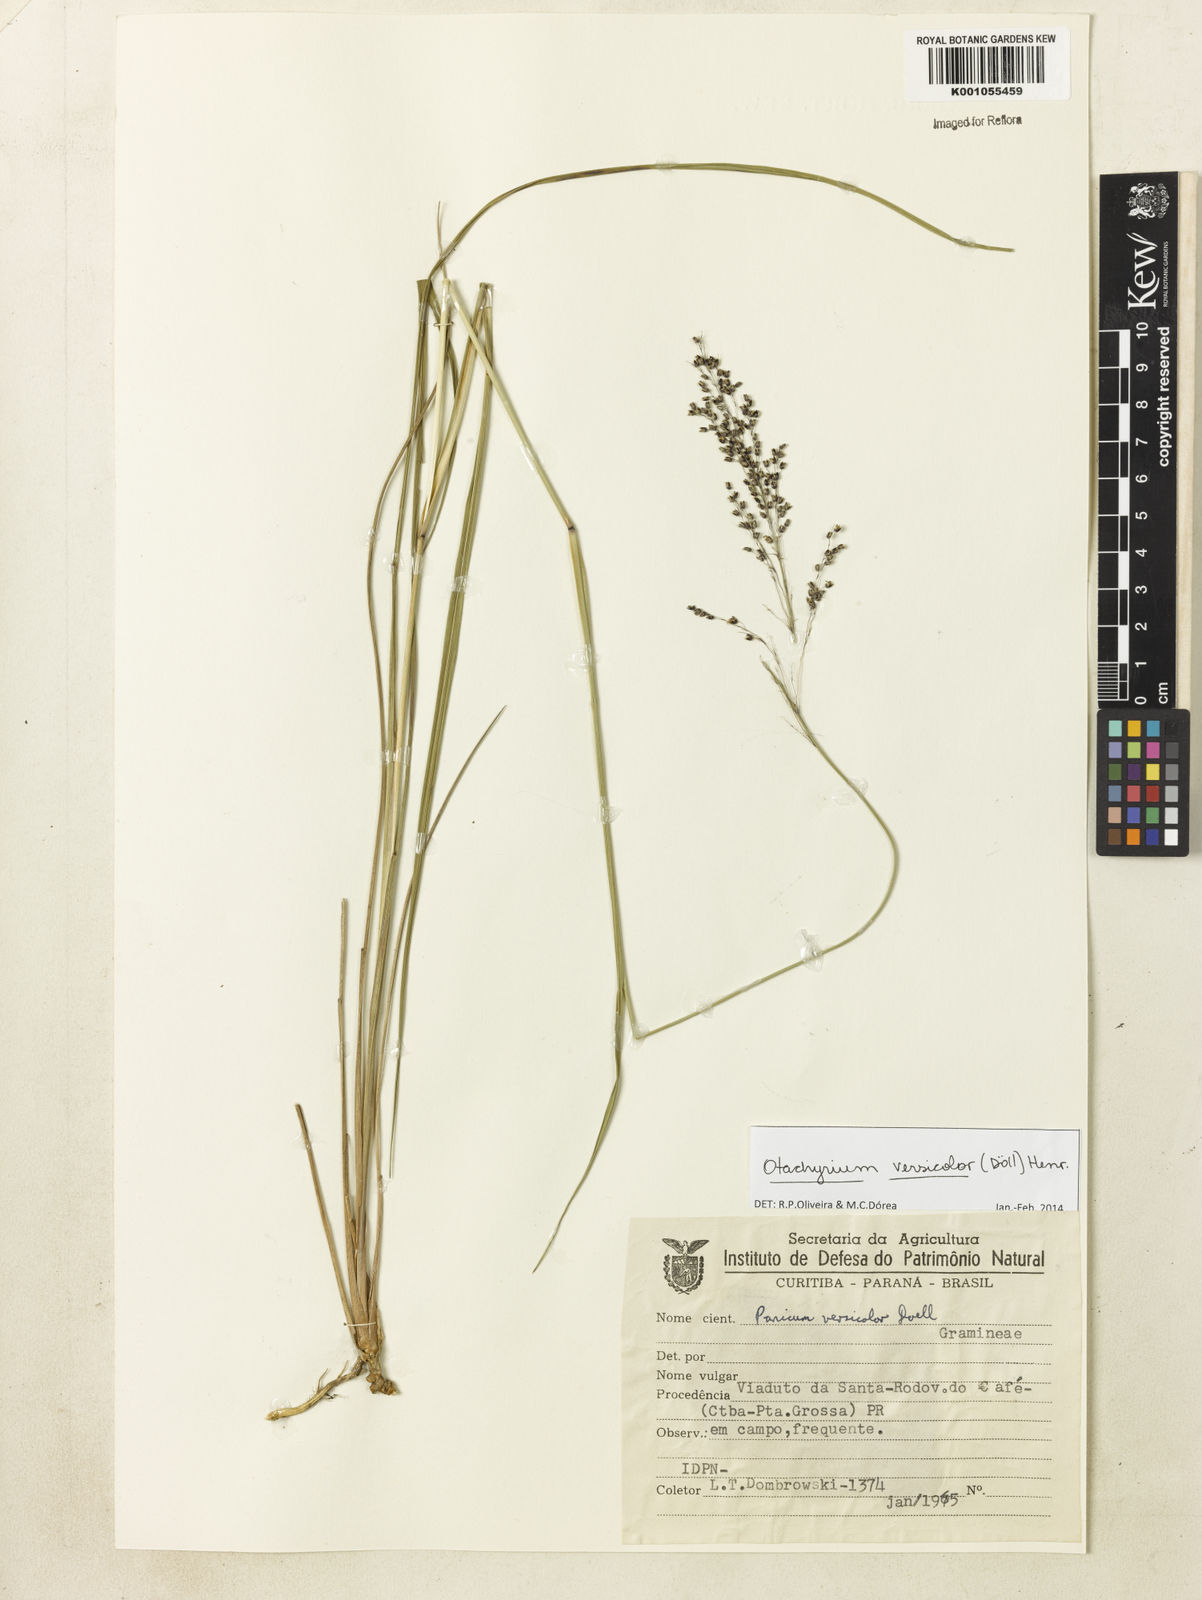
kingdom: Plantae
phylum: Tracheophyta
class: Liliopsida
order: Poales
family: Poaceae
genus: Otachyrium
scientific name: Otachyrium
